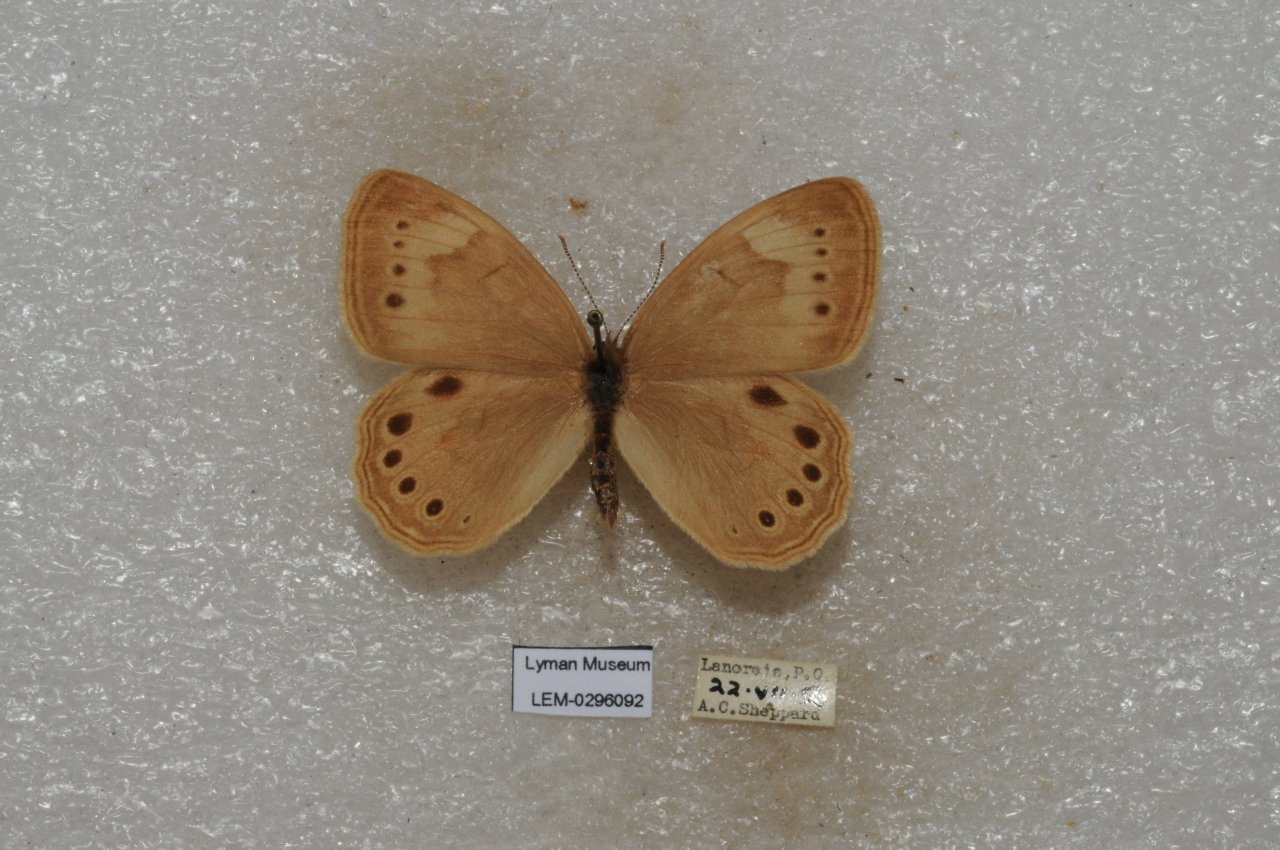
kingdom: Animalia
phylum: Arthropoda
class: Insecta
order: Lepidoptera
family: Nymphalidae
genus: Lethe
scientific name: Lethe eurydice
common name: Eyed Brown
